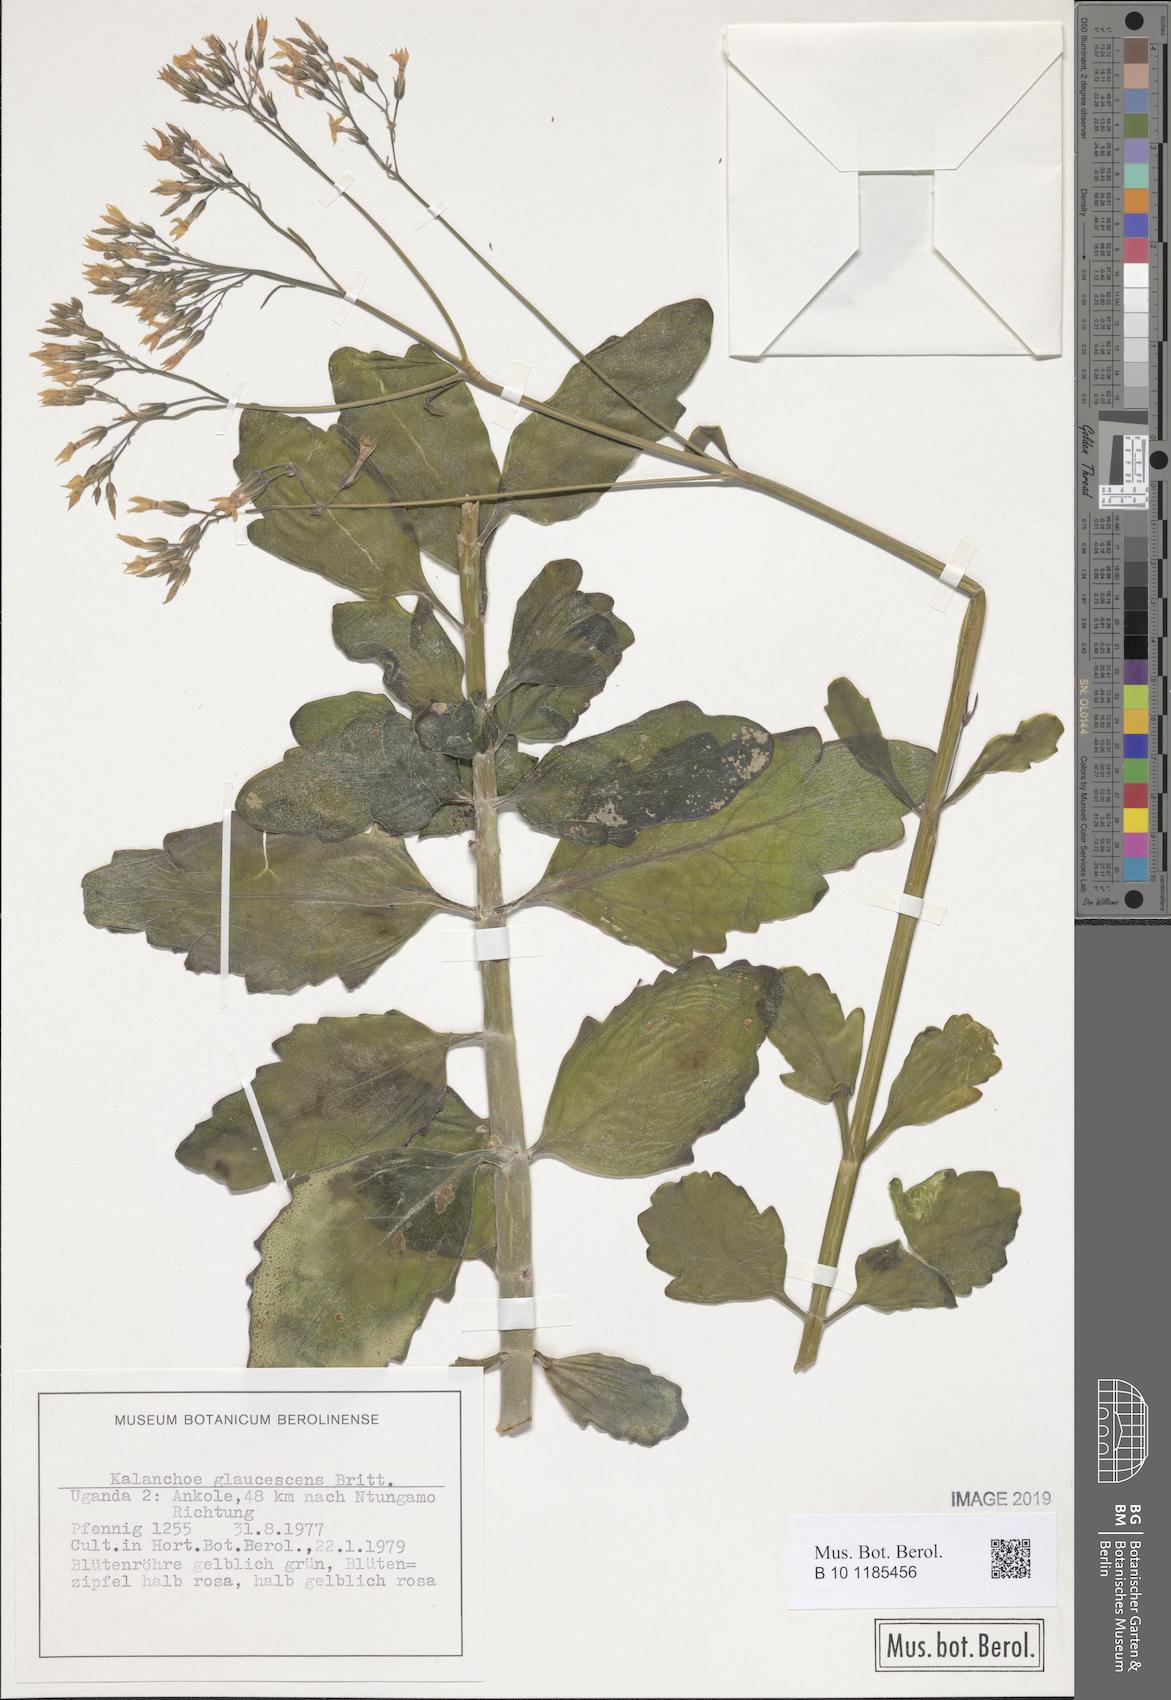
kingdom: Plantae
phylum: Tracheophyta
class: Magnoliopsida
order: Saxifragales
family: Crassulaceae
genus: Kalanchoe
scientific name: Kalanchoe glaucescens
